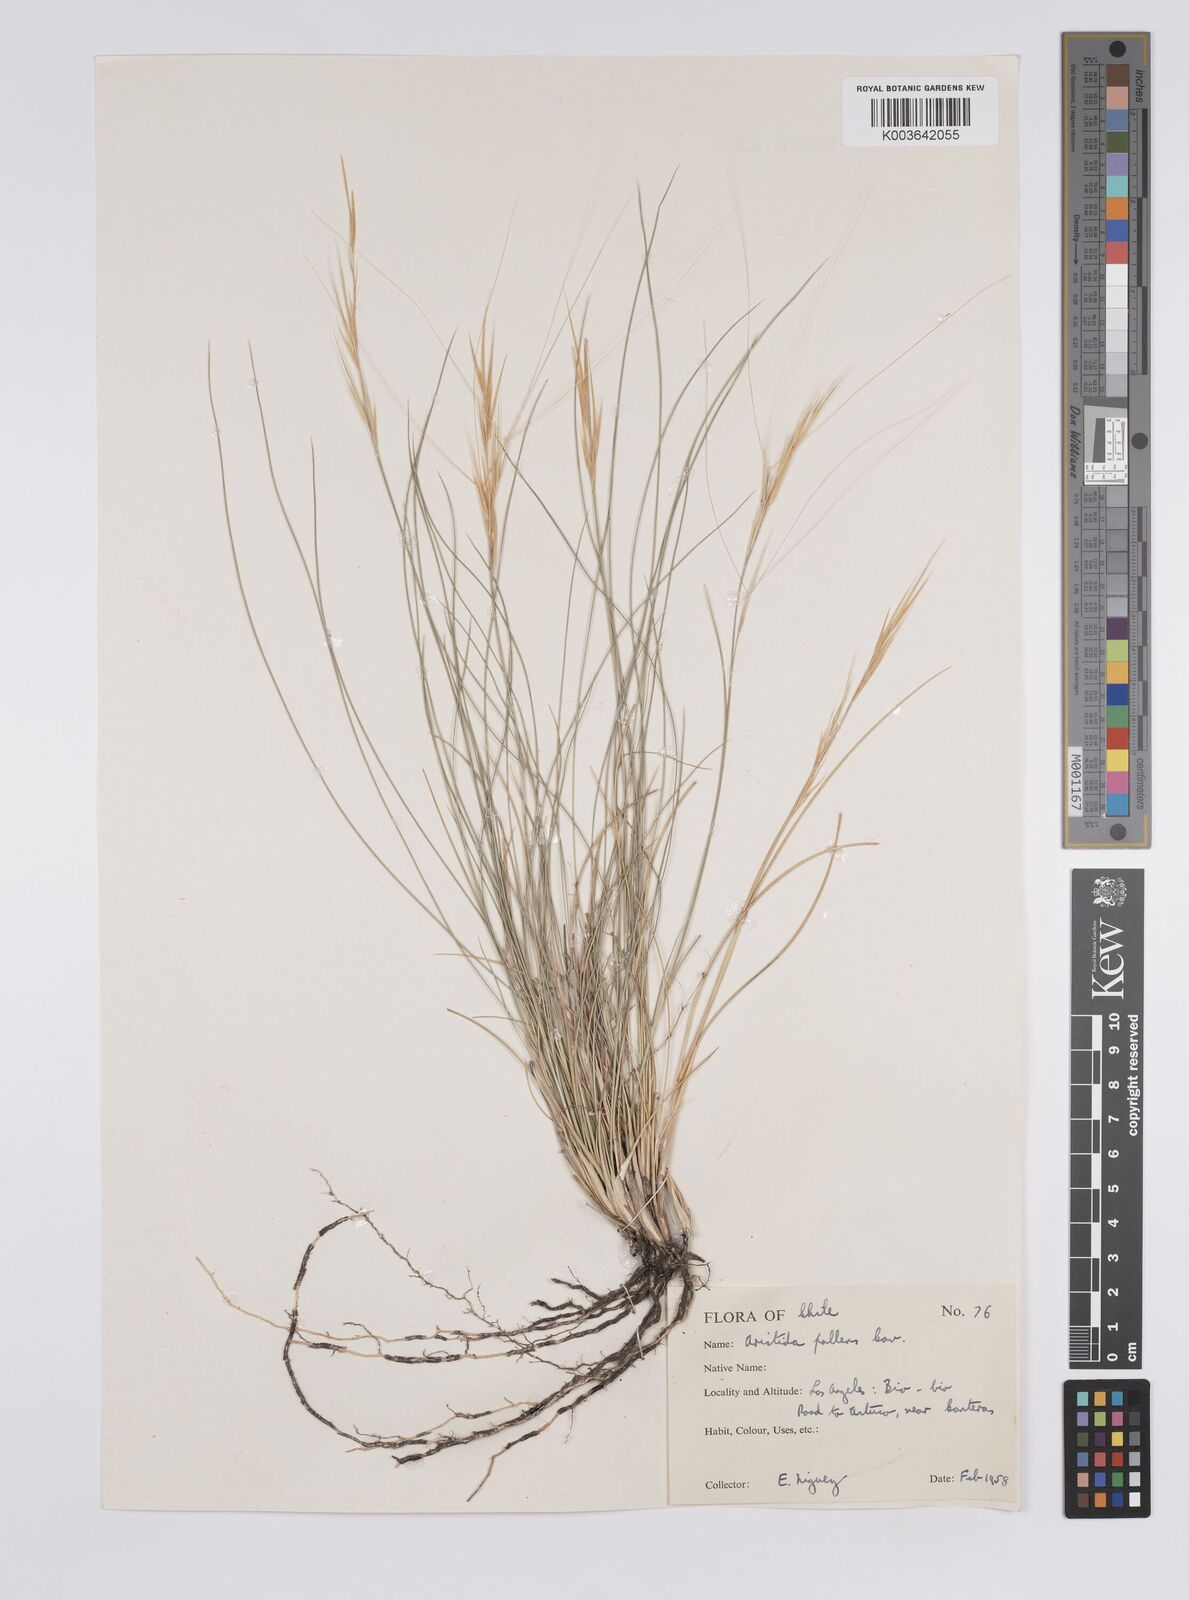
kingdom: Plantae
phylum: Tracheophyta
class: Liliopsida
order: Poales
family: Poaceae
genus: Aristida
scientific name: Aristida pallens
